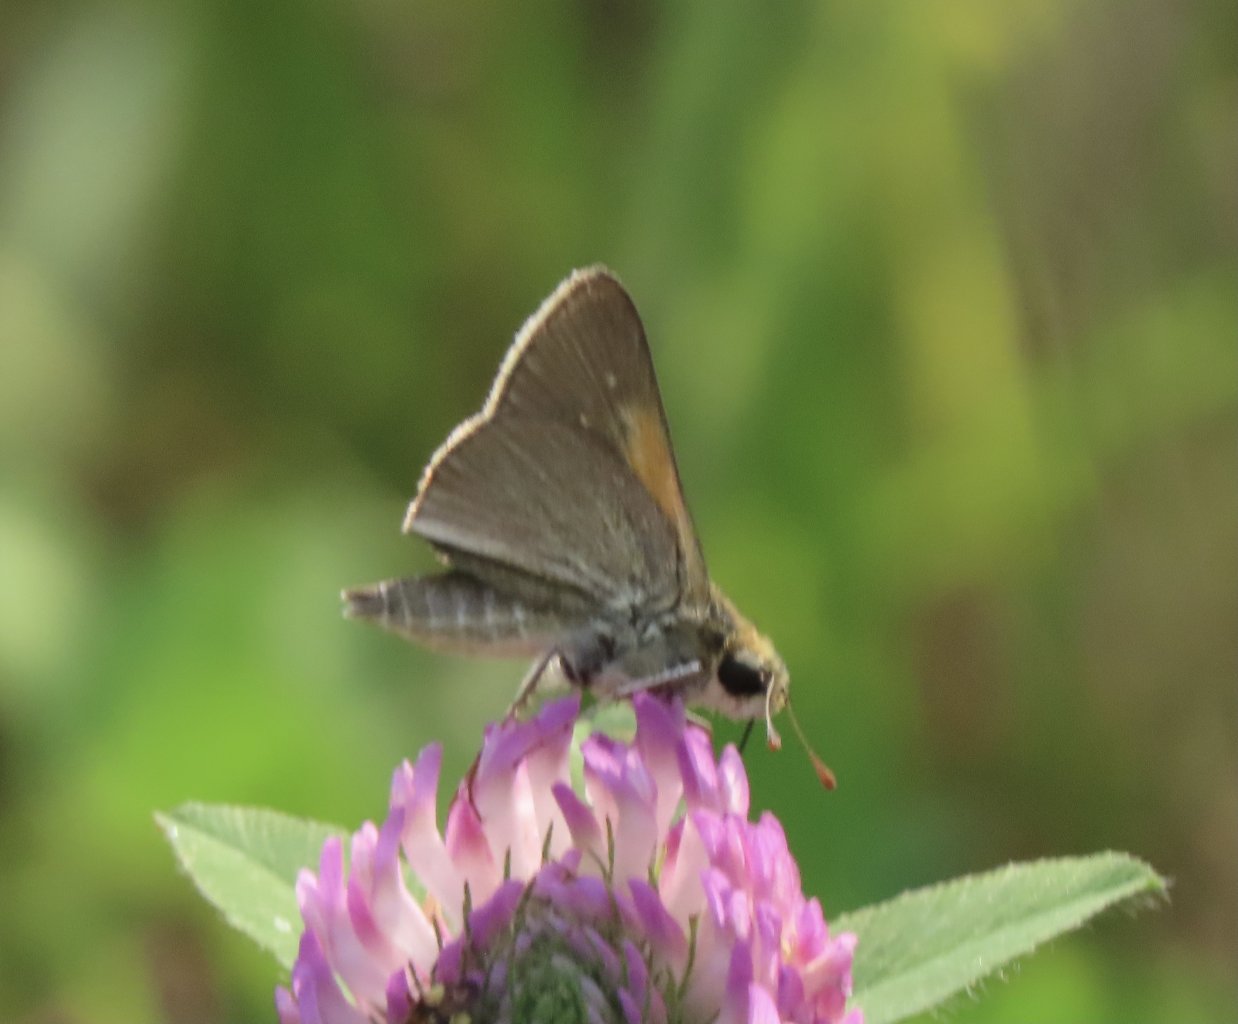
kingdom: Animalia
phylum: Arthropoda
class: Insecta
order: Lepidoptera
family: Hesperiidae
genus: Polites
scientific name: Polites themistocles
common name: Tawny-edged Skipper
